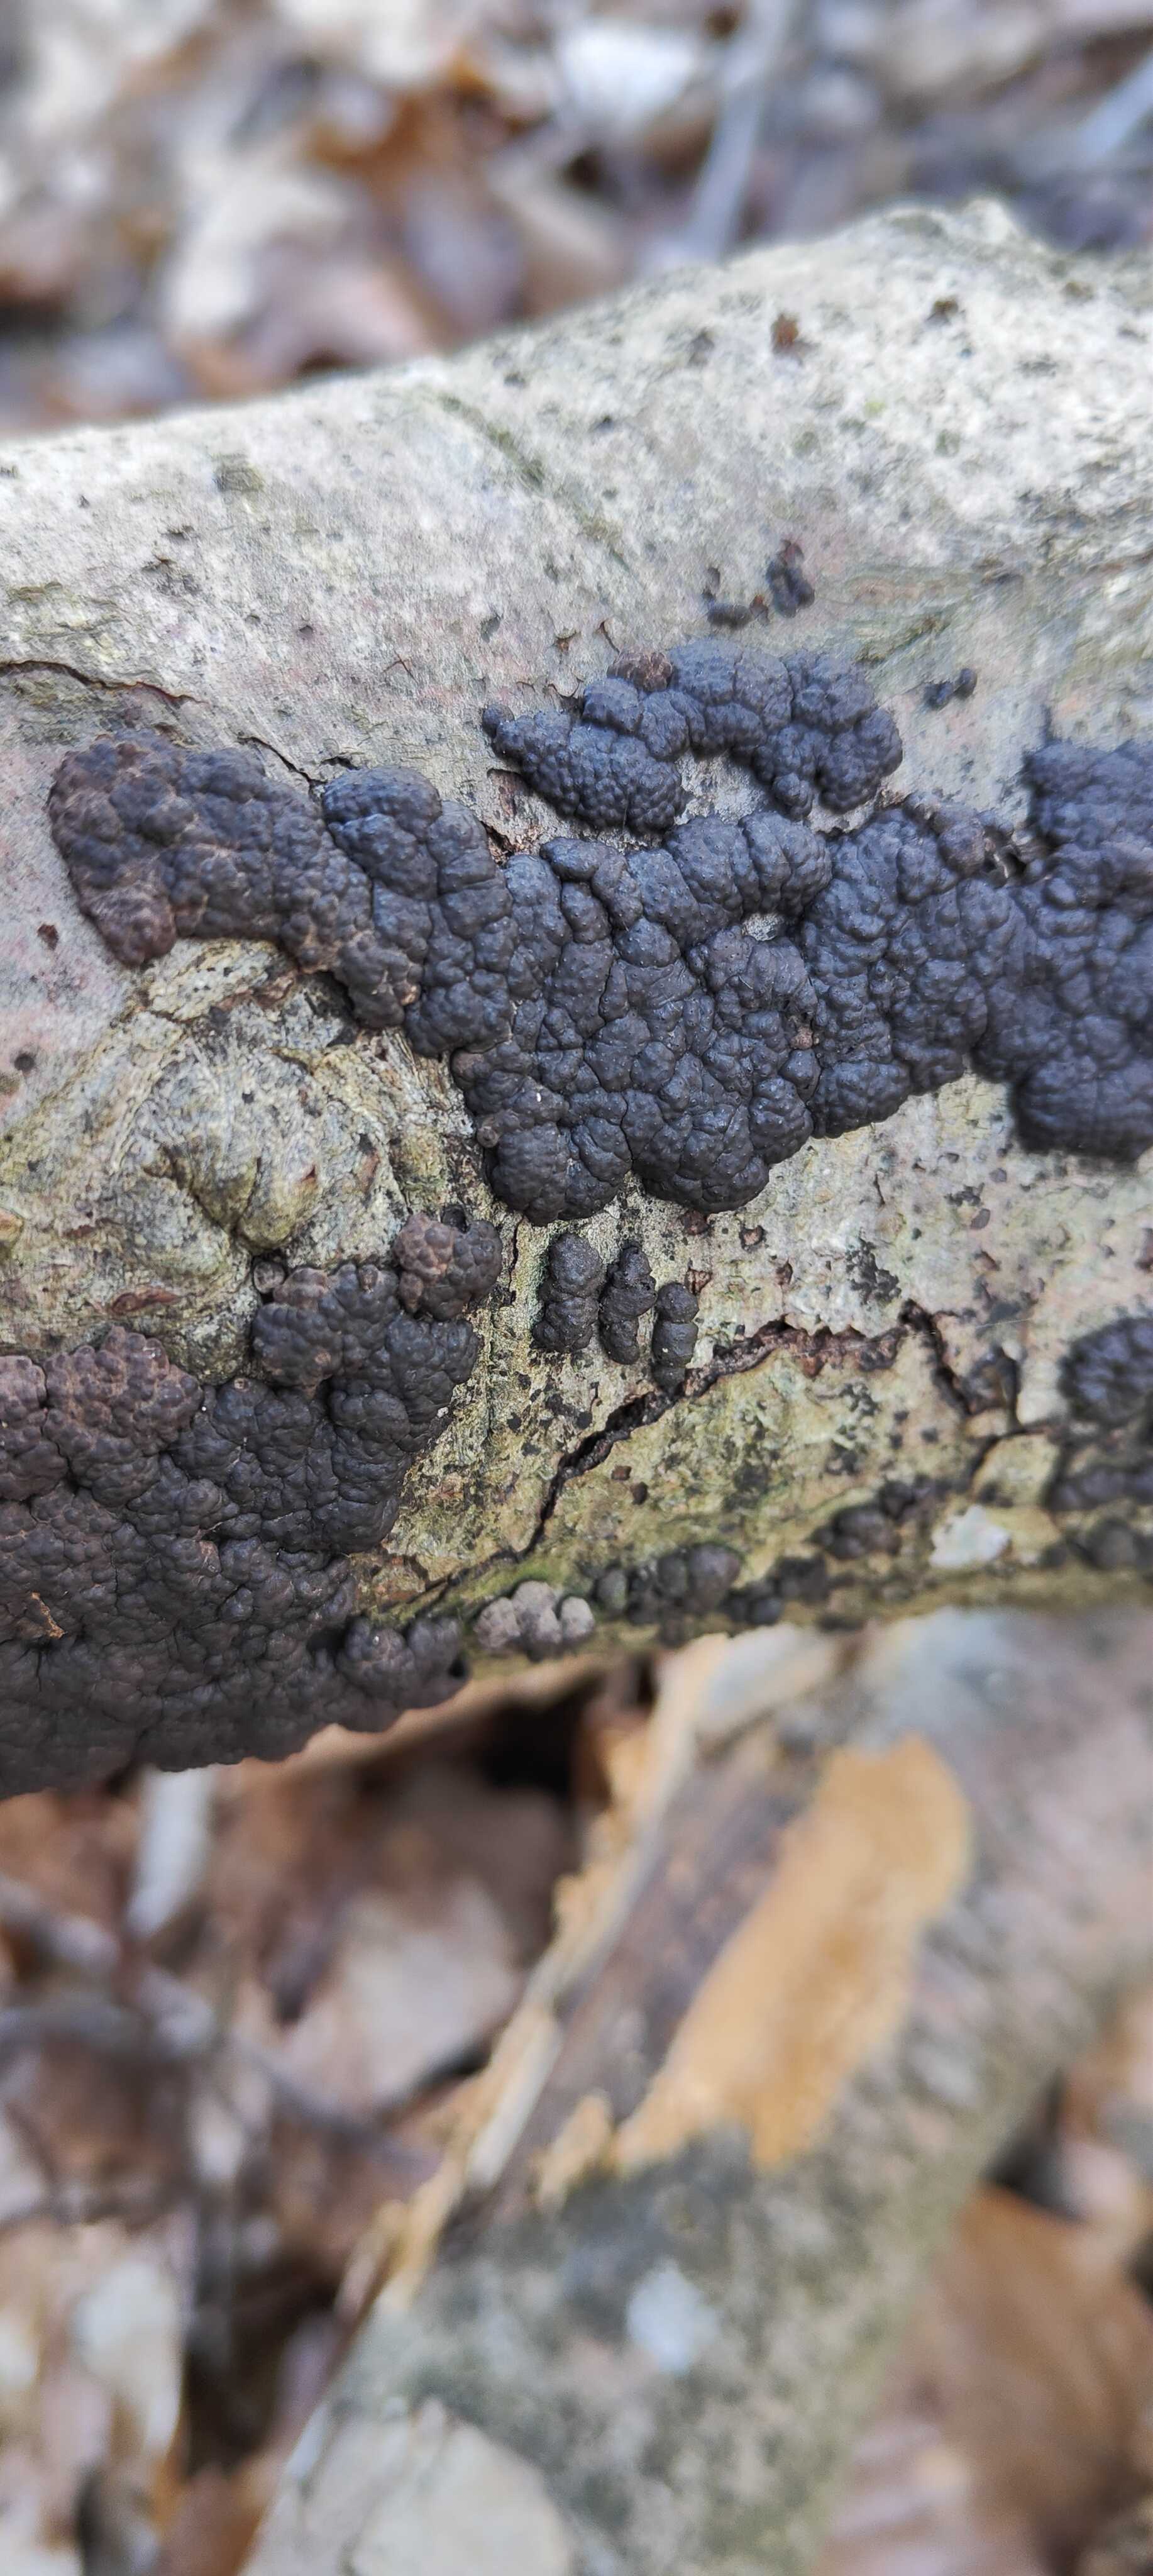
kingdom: Fungi
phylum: Ascomycota
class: Sordariomycetes
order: Xylariales
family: Hypoxylaceae
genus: Jackrogersella
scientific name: Jackrogersella cohaerens
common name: sammenflydende kulbær
